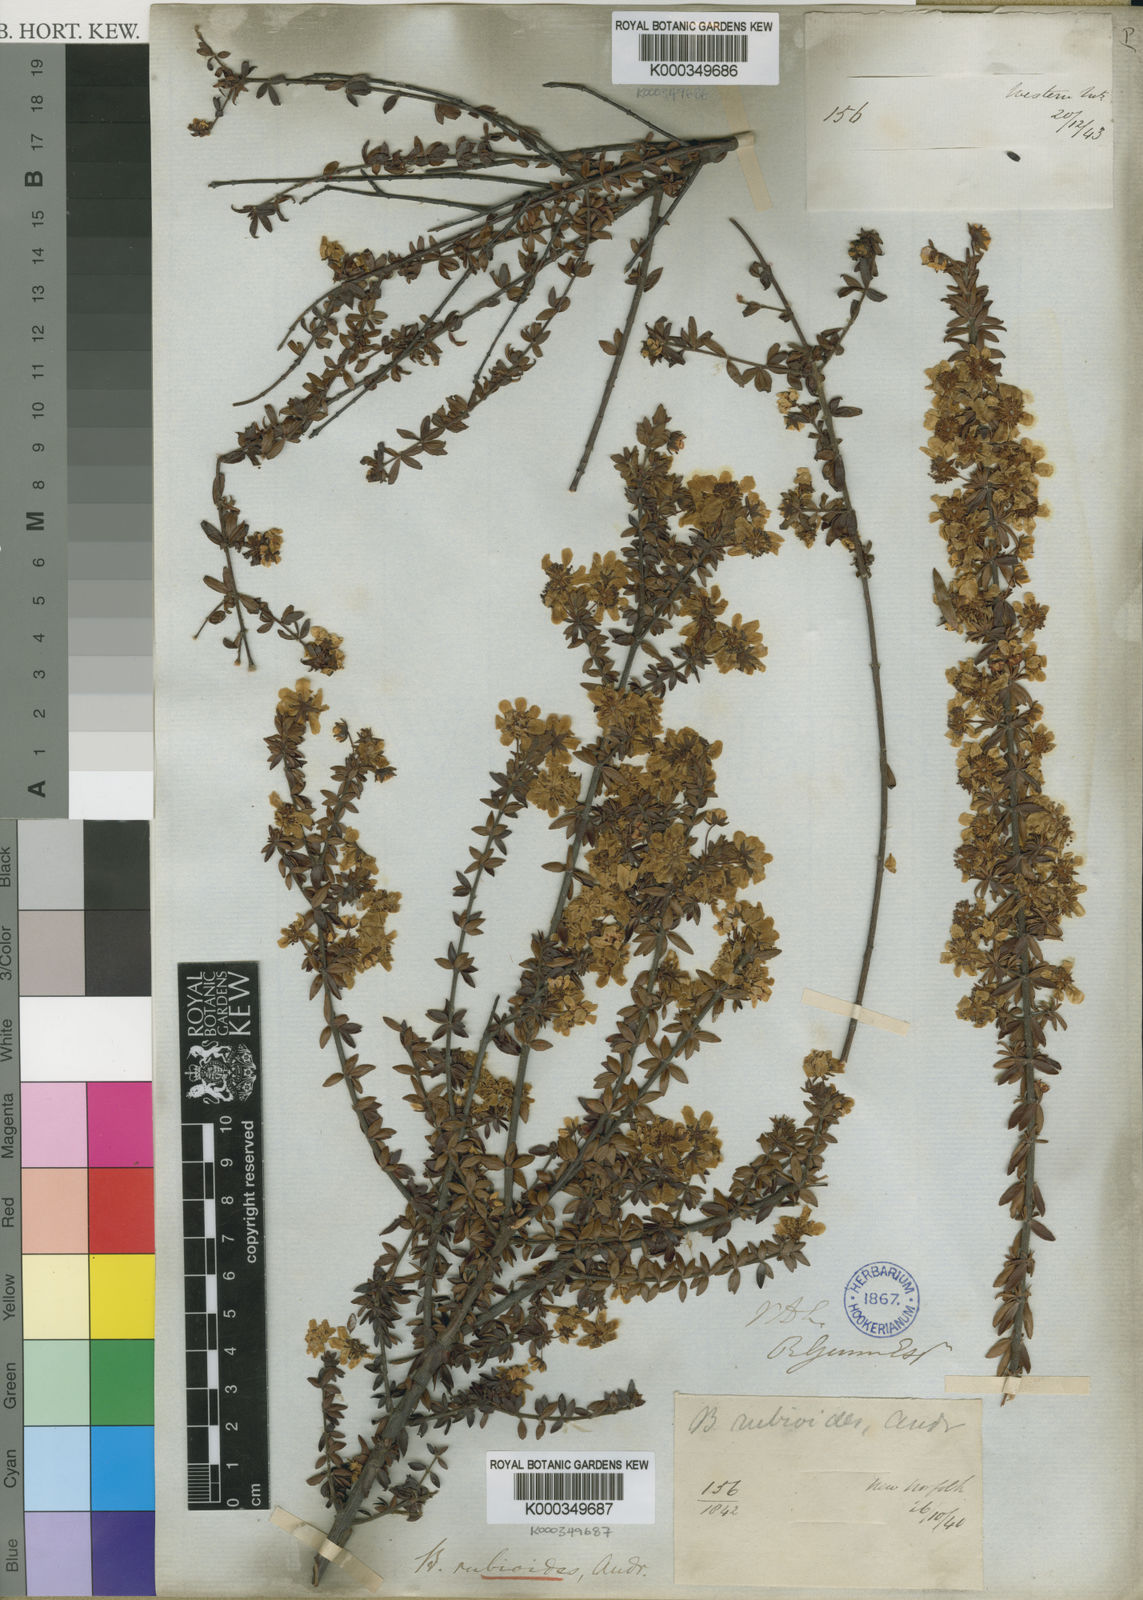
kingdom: Plantae
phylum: Tracheophyta
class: Magnoliopsida
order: Oxalidales
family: Cunoniaceae
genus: Bauera
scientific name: Bauera rubioides
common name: River-rose
